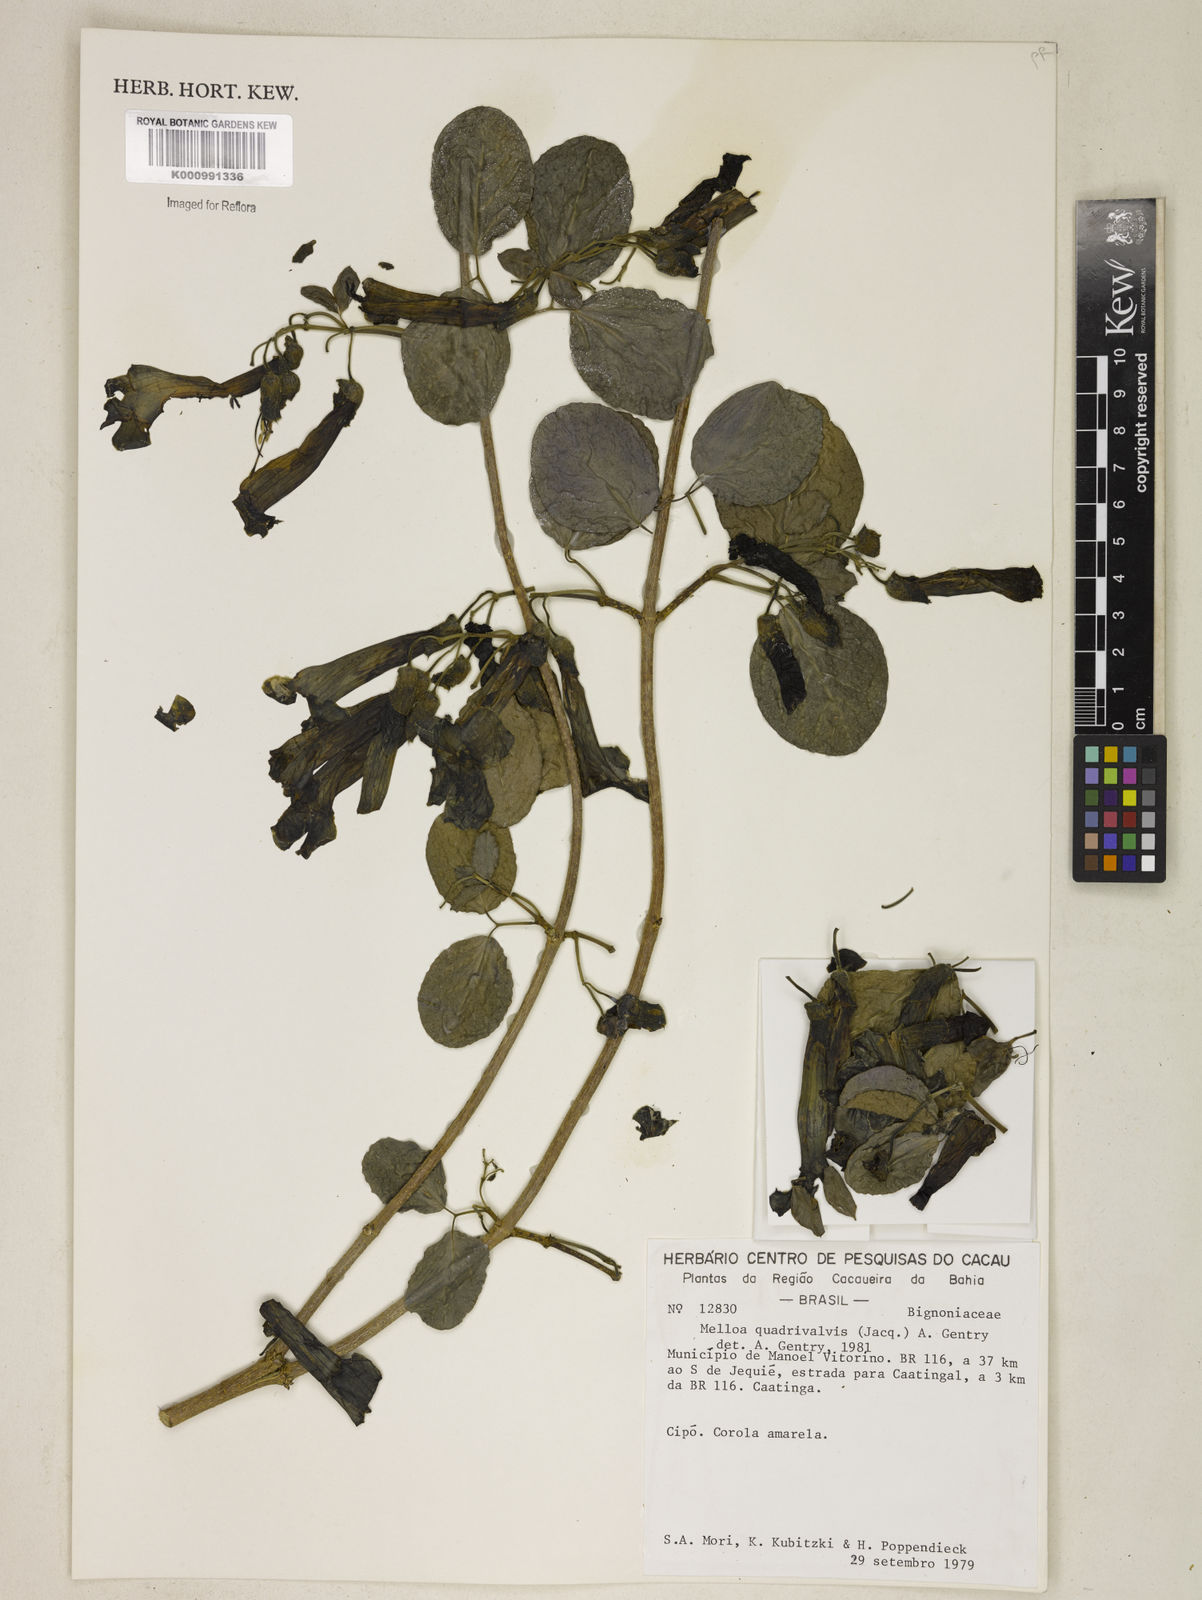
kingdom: Plantae
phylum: Tracheophyta
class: Magnoliopsida
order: Lamiales
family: Bignoniaceae
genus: Dolichandra
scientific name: Dolichandra quadrivalvis
